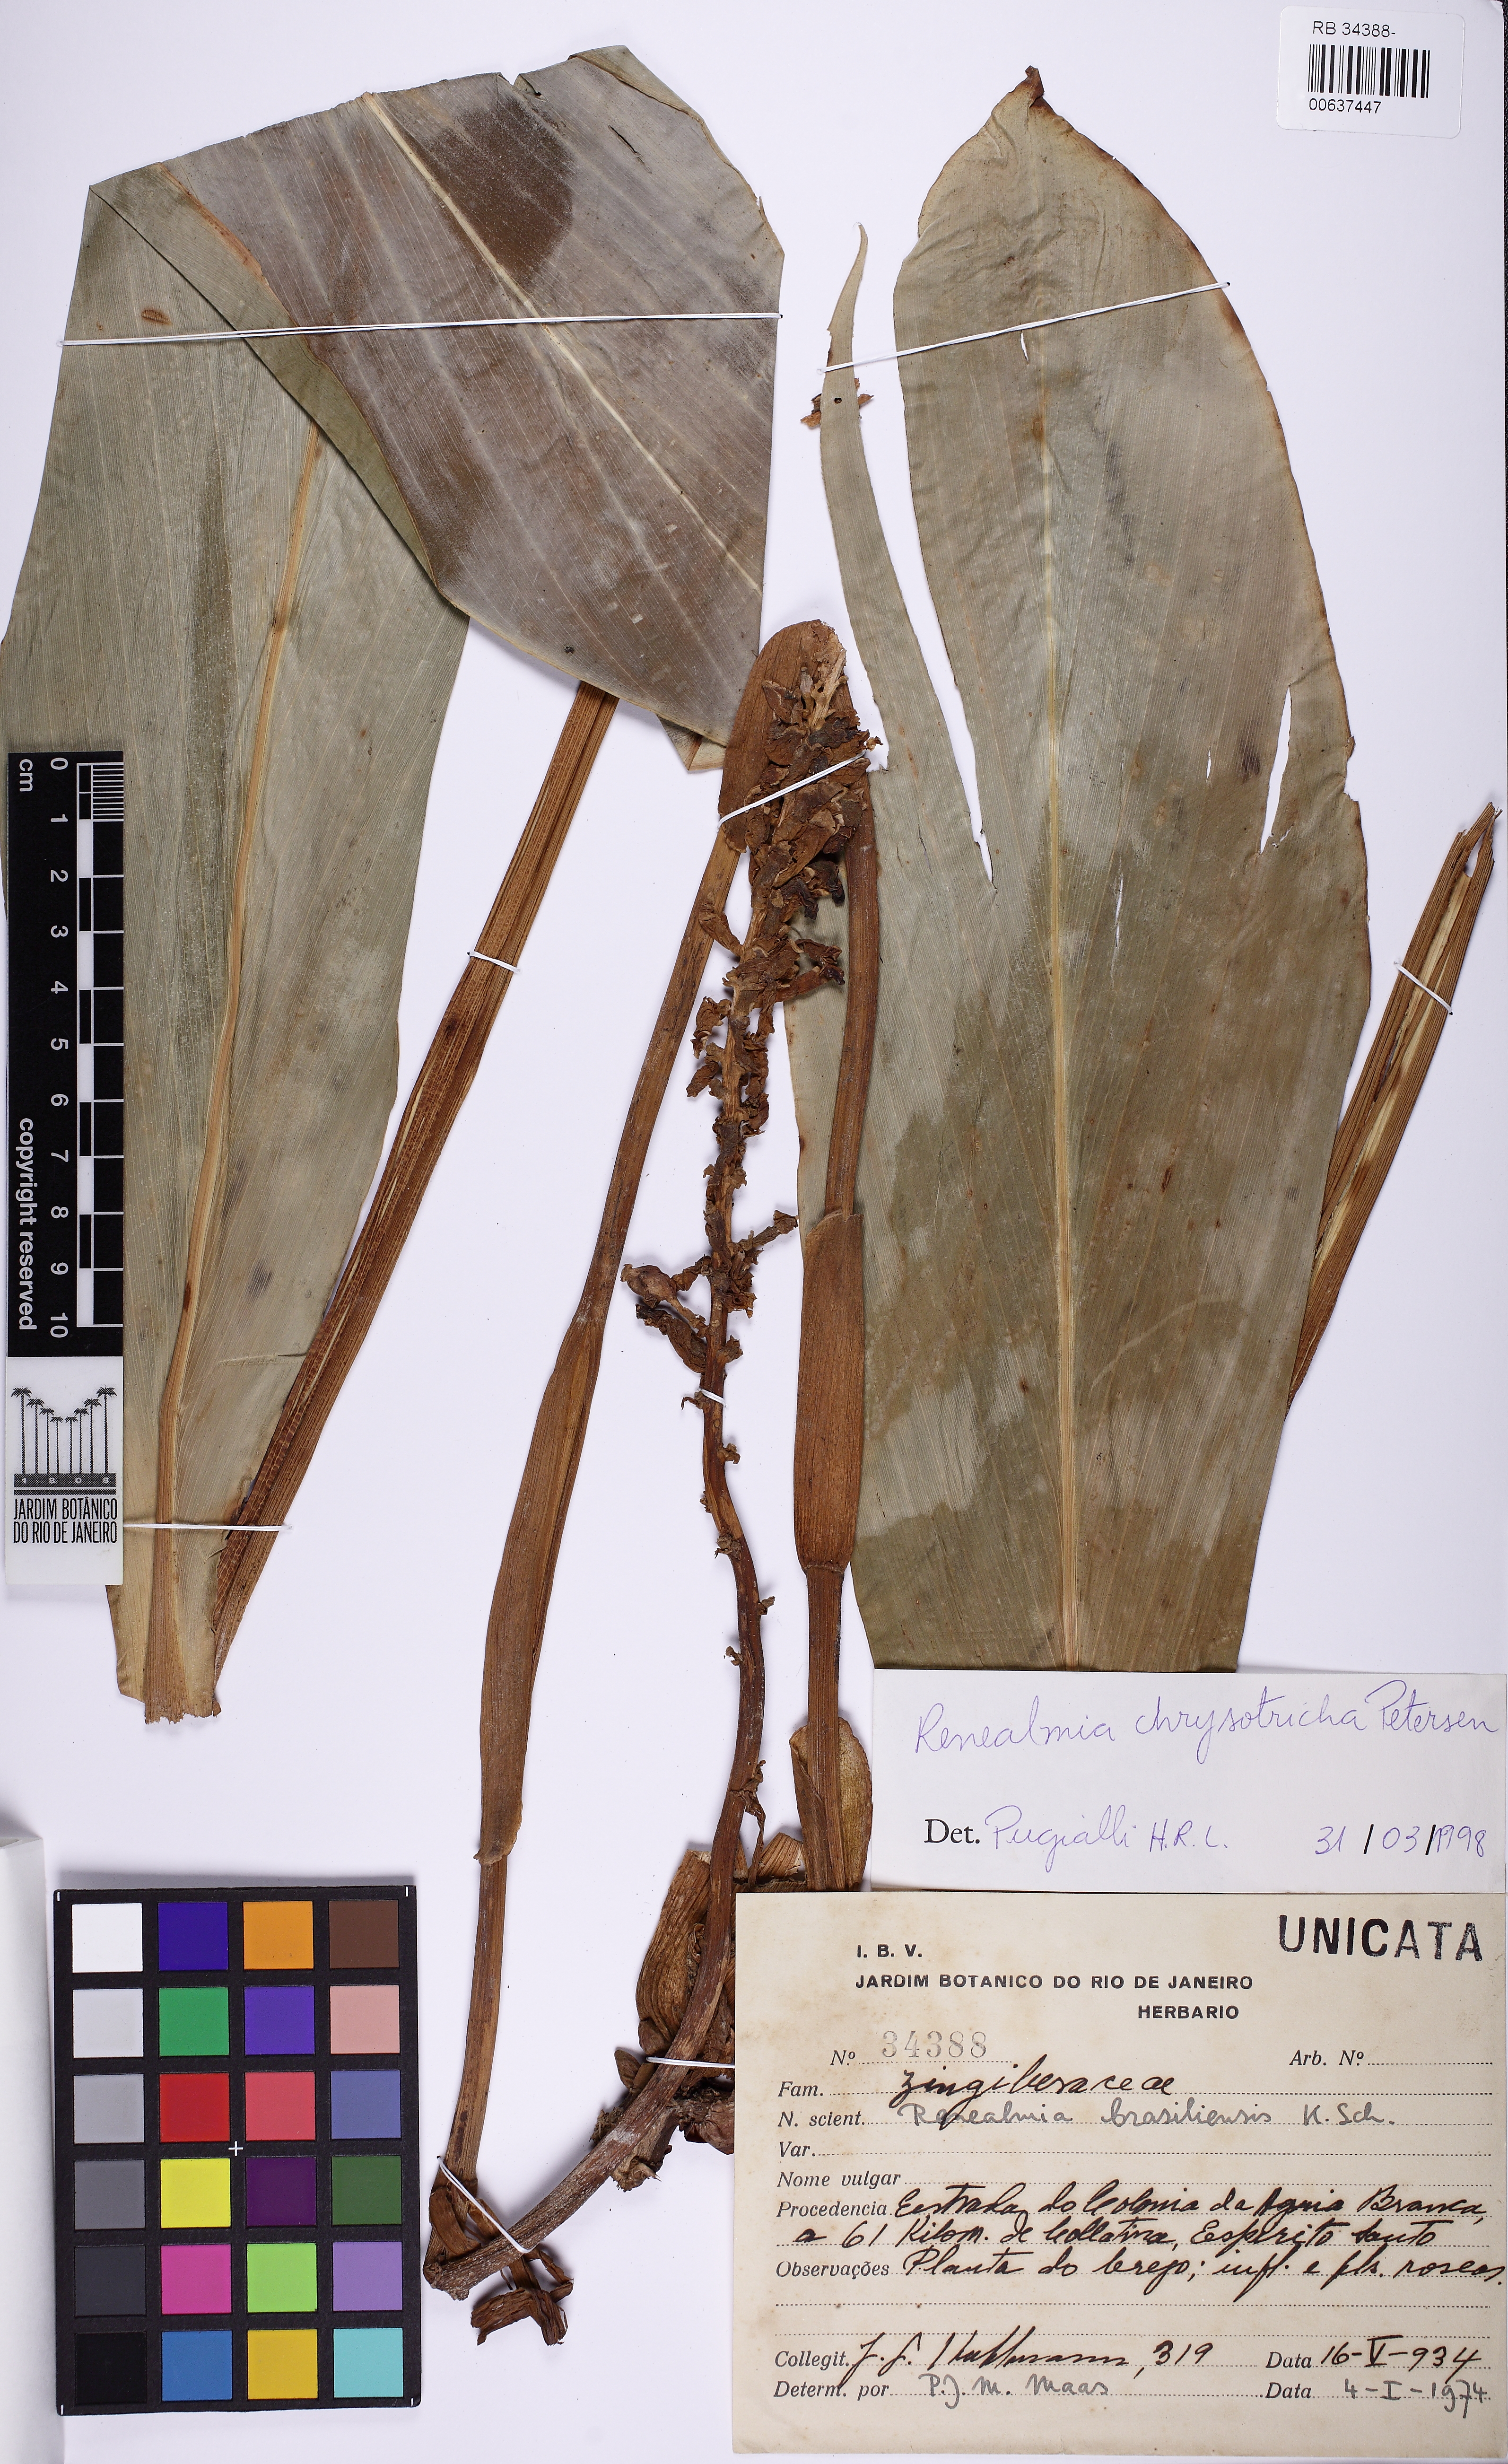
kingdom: Plantae
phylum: Tracheophyta
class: Liliopsida
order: Zingiberales
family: Zingiberaceae
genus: Renealmia
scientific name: Renealmia chrysotricha
